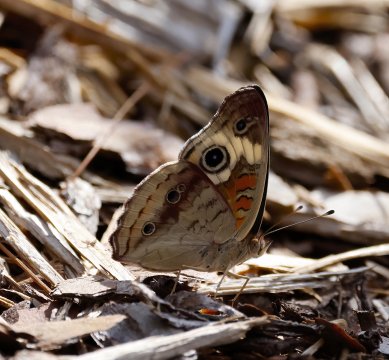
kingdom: Animalia
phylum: Arthropoda
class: Insecta
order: Lepidoptera
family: Nymphalidae
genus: Junonia
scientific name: Junonia coenia
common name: Common Buckeye
